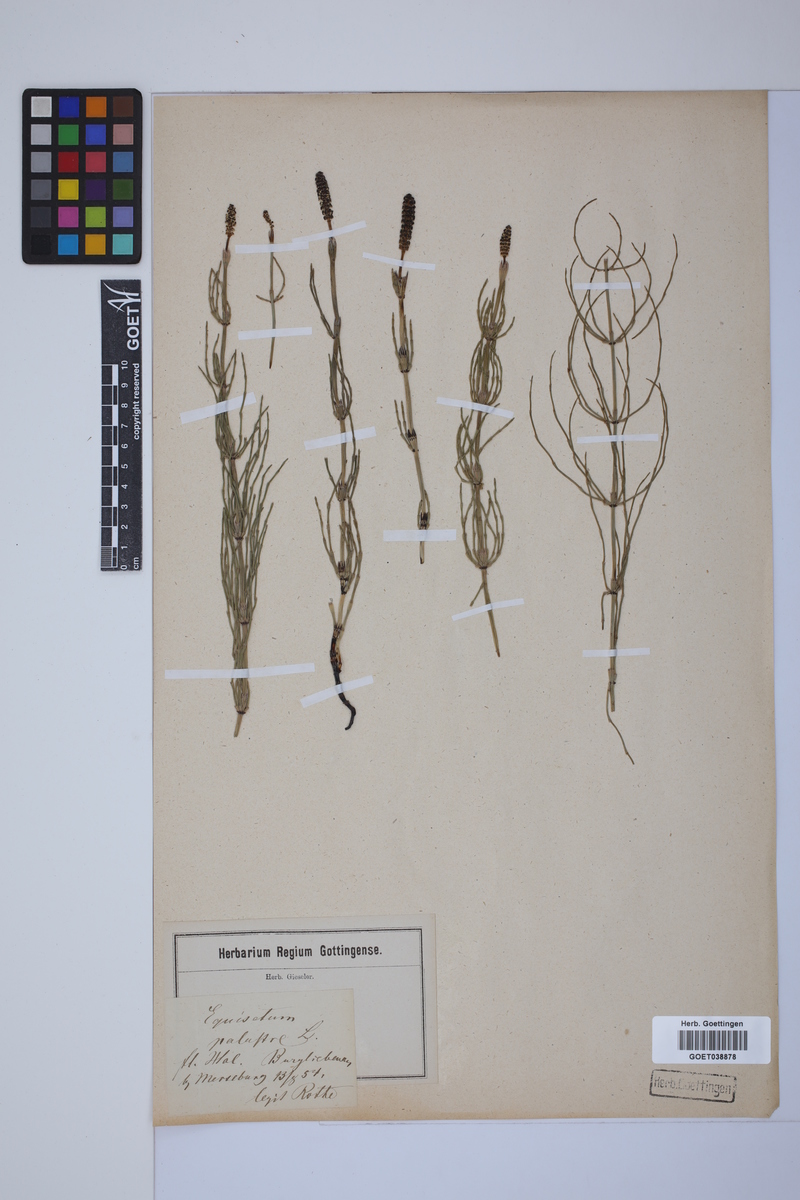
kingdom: Plantae
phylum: Tracheophyta
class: Polypodiopsida
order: Equisetales
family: Equisetaceae
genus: Equisetum
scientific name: Equisetum palustre
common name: Marsh horsetail
